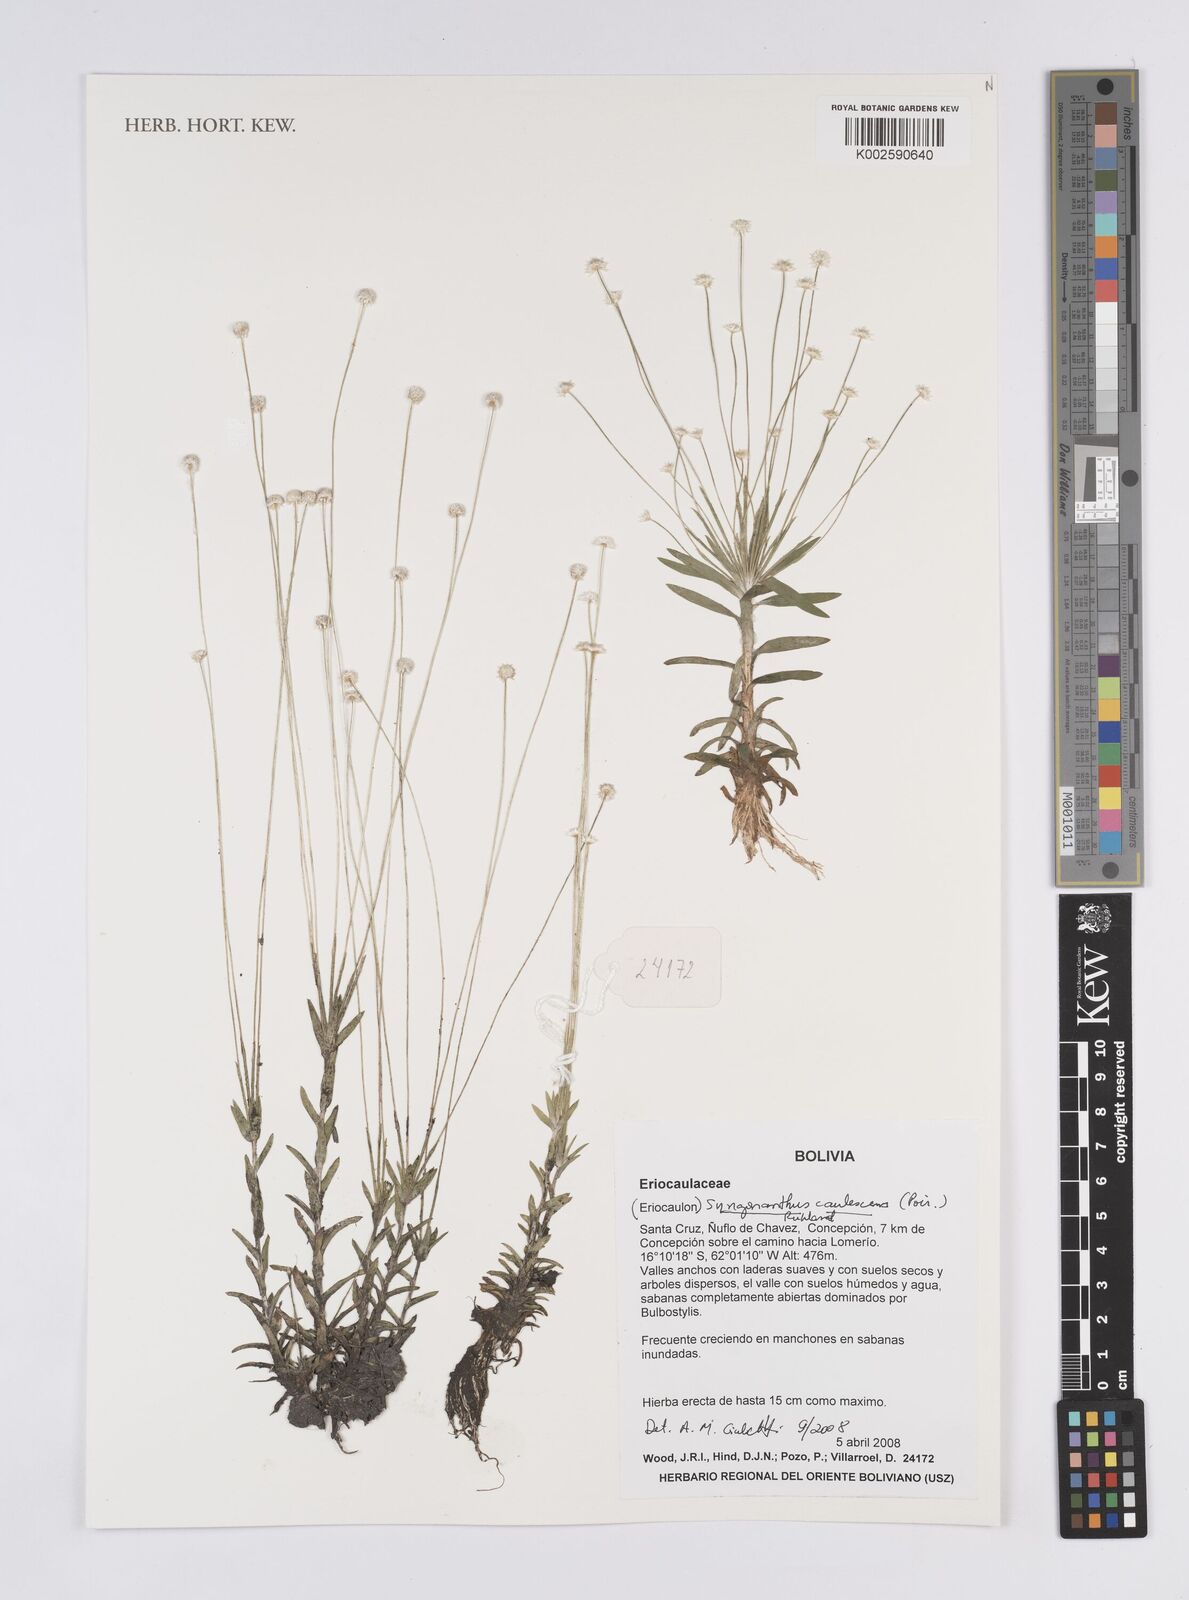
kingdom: Plantae
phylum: Tracheophyta
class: Liliopsida
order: Poales
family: Eriocaulaceae
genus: Syngonanthus
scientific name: Syngonanthus caulescens
